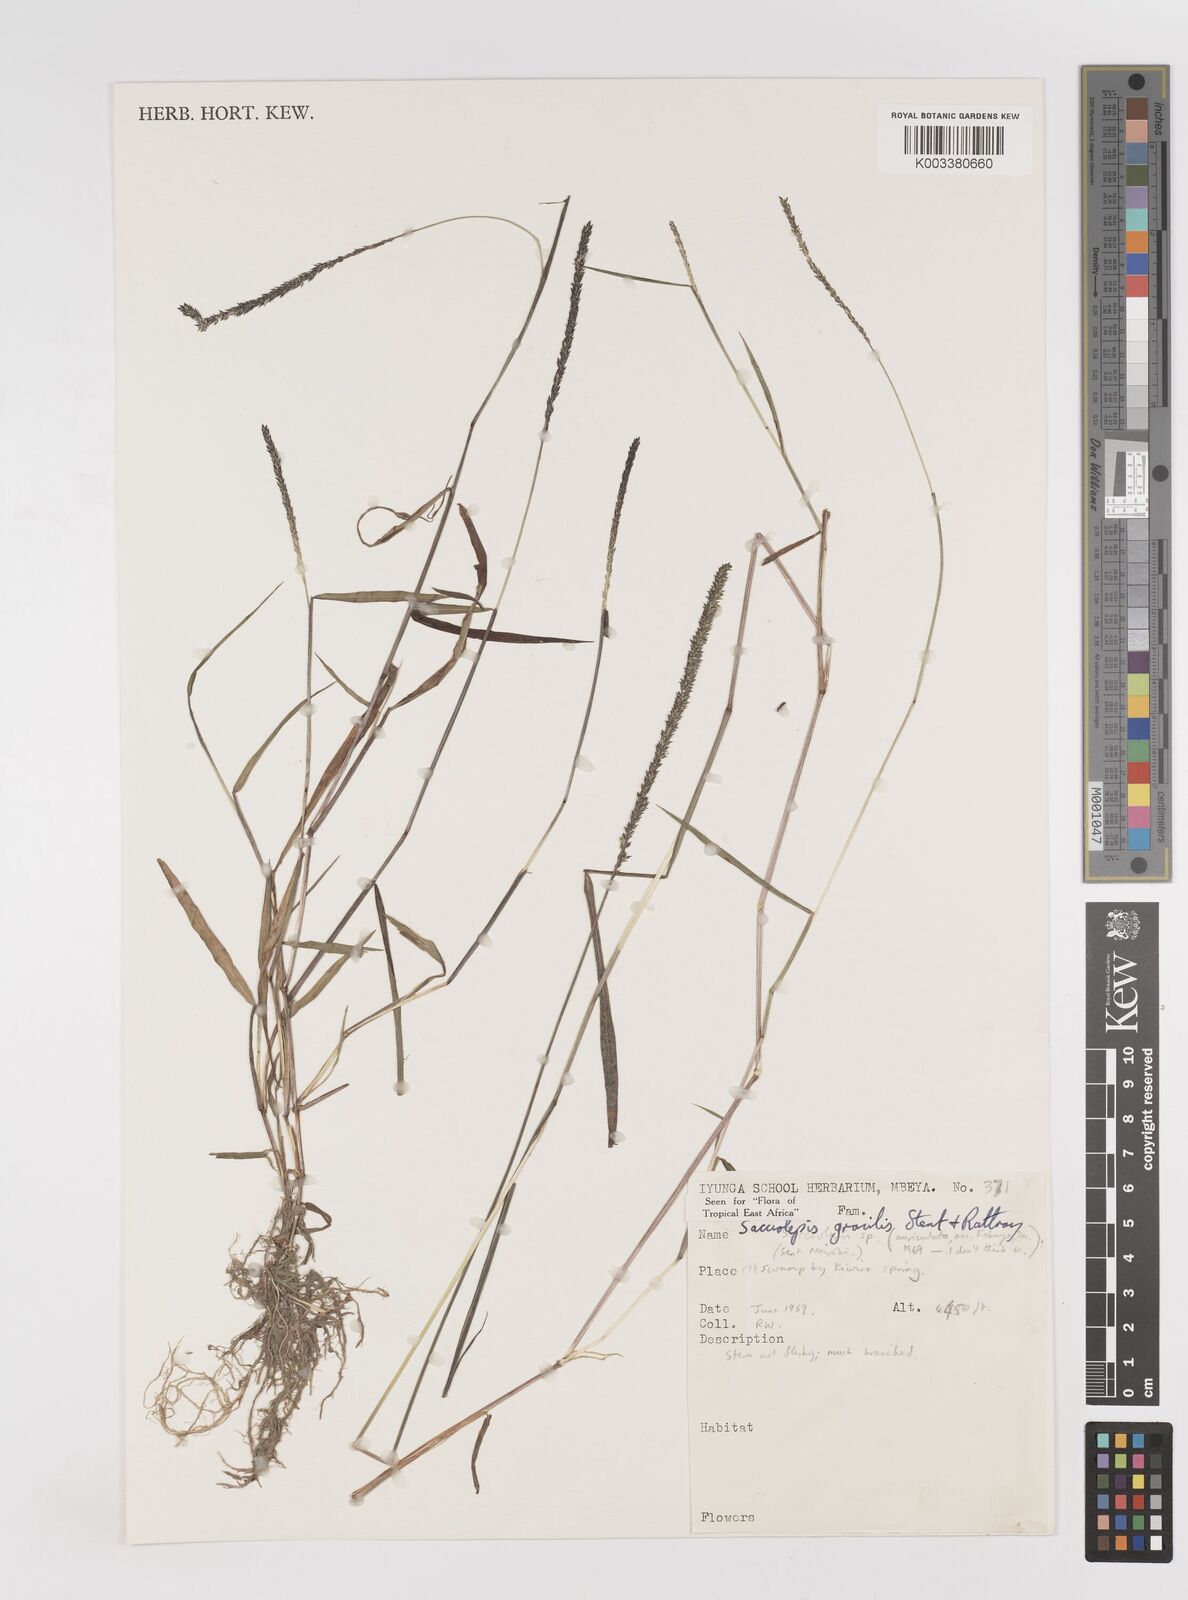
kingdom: Plantae
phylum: Tracheophyta
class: Liliopsida
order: Poales
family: Poaceae
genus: Sacciolepis
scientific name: Sacciolepis indica
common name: Glenwoodgrass
